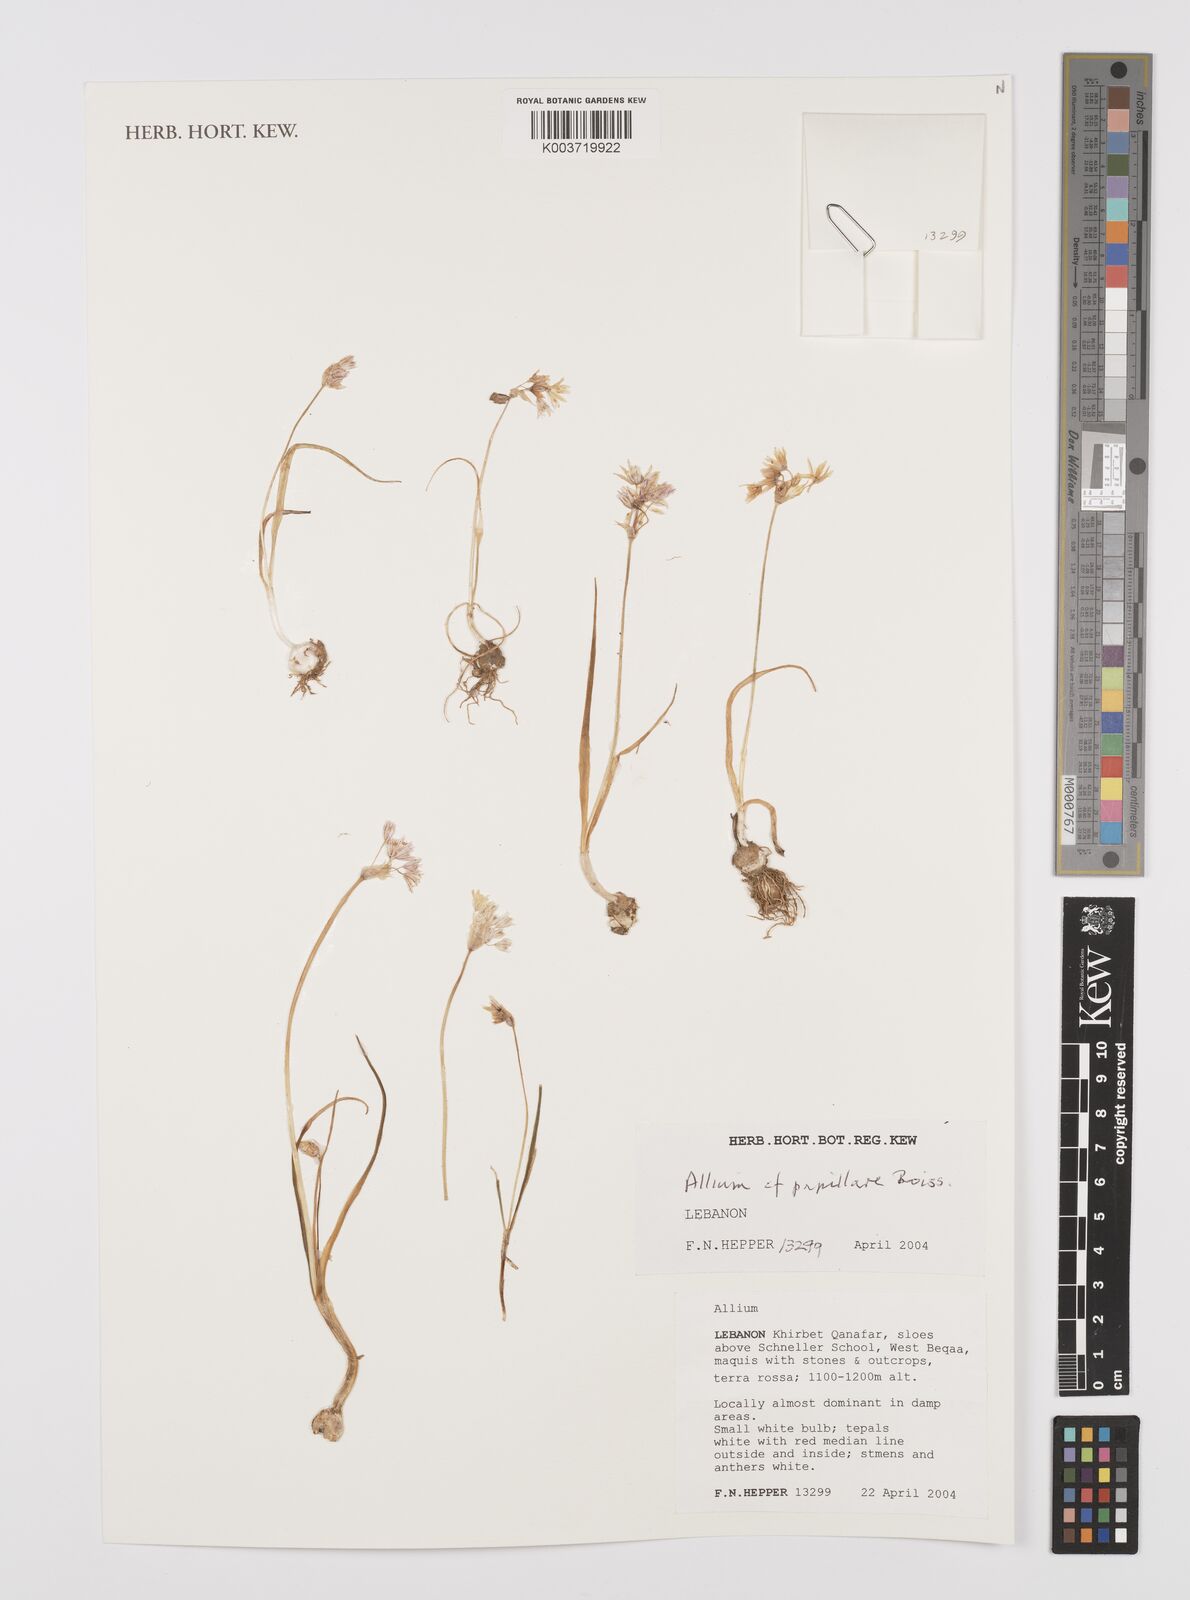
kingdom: Plantae
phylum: Tracheophyta
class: Liliopsida
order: Asparagales
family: Amaryllidaceae
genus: Allium
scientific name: Allium papillare
